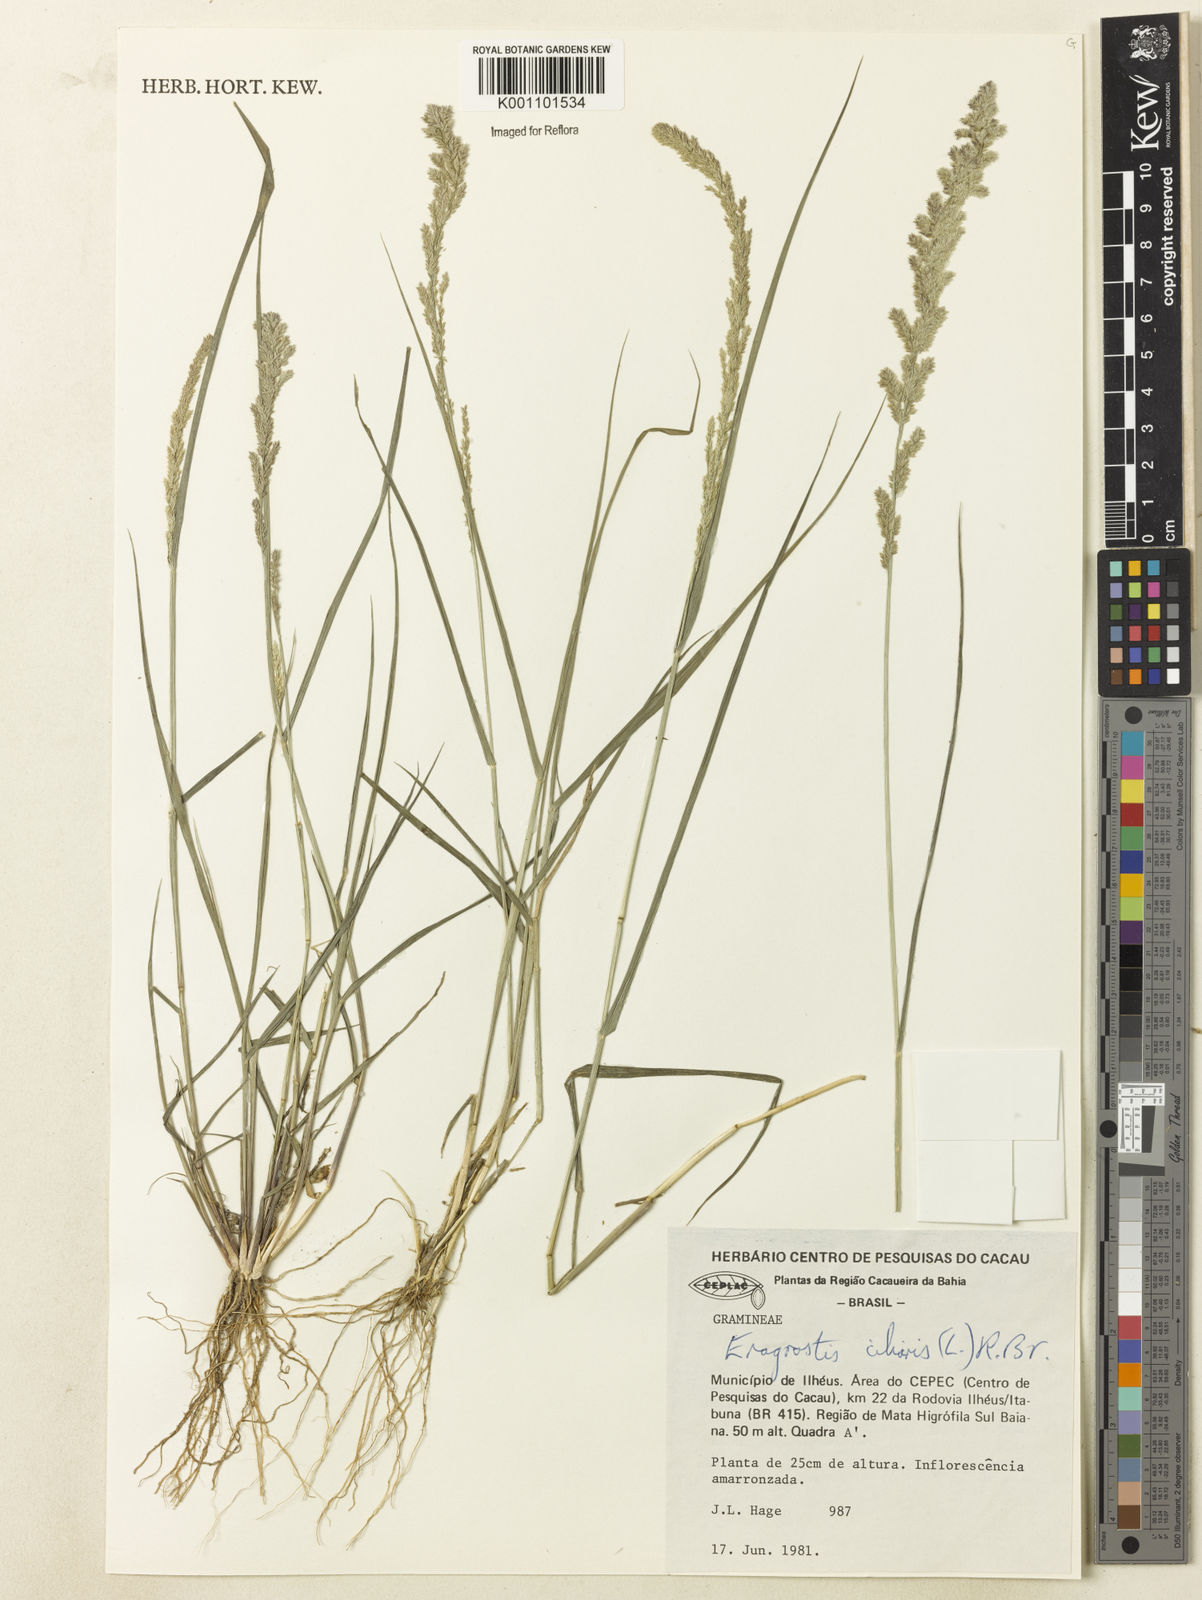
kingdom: Plantae
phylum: Tracheophyta
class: Liliopsida
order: Poales
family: Poaceae
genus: Eragrostis
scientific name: Eragrostis ciliaris
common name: Gophertail lovegrass
